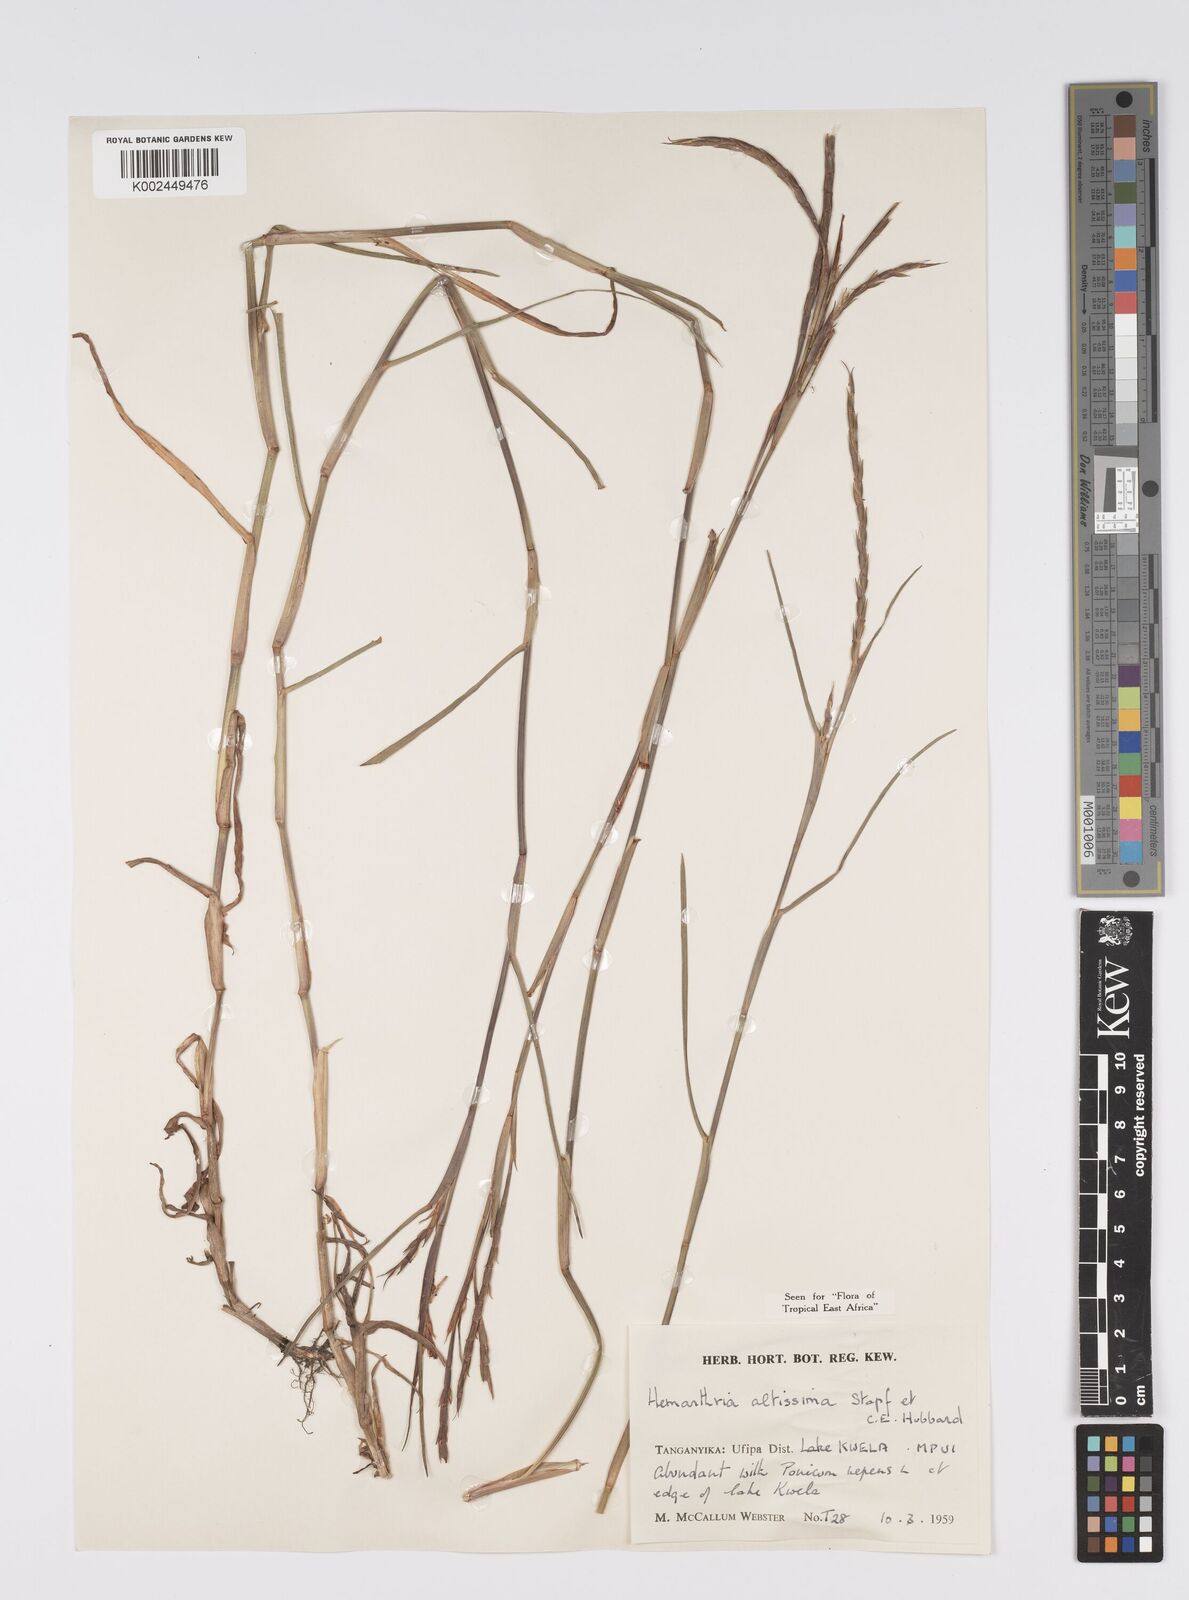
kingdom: Plantae
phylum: Tracheophyta
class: Liliopsida
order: Poales
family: Poaceae
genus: Hemarthria
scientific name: Hemarthria altissima
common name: African jointgrass
